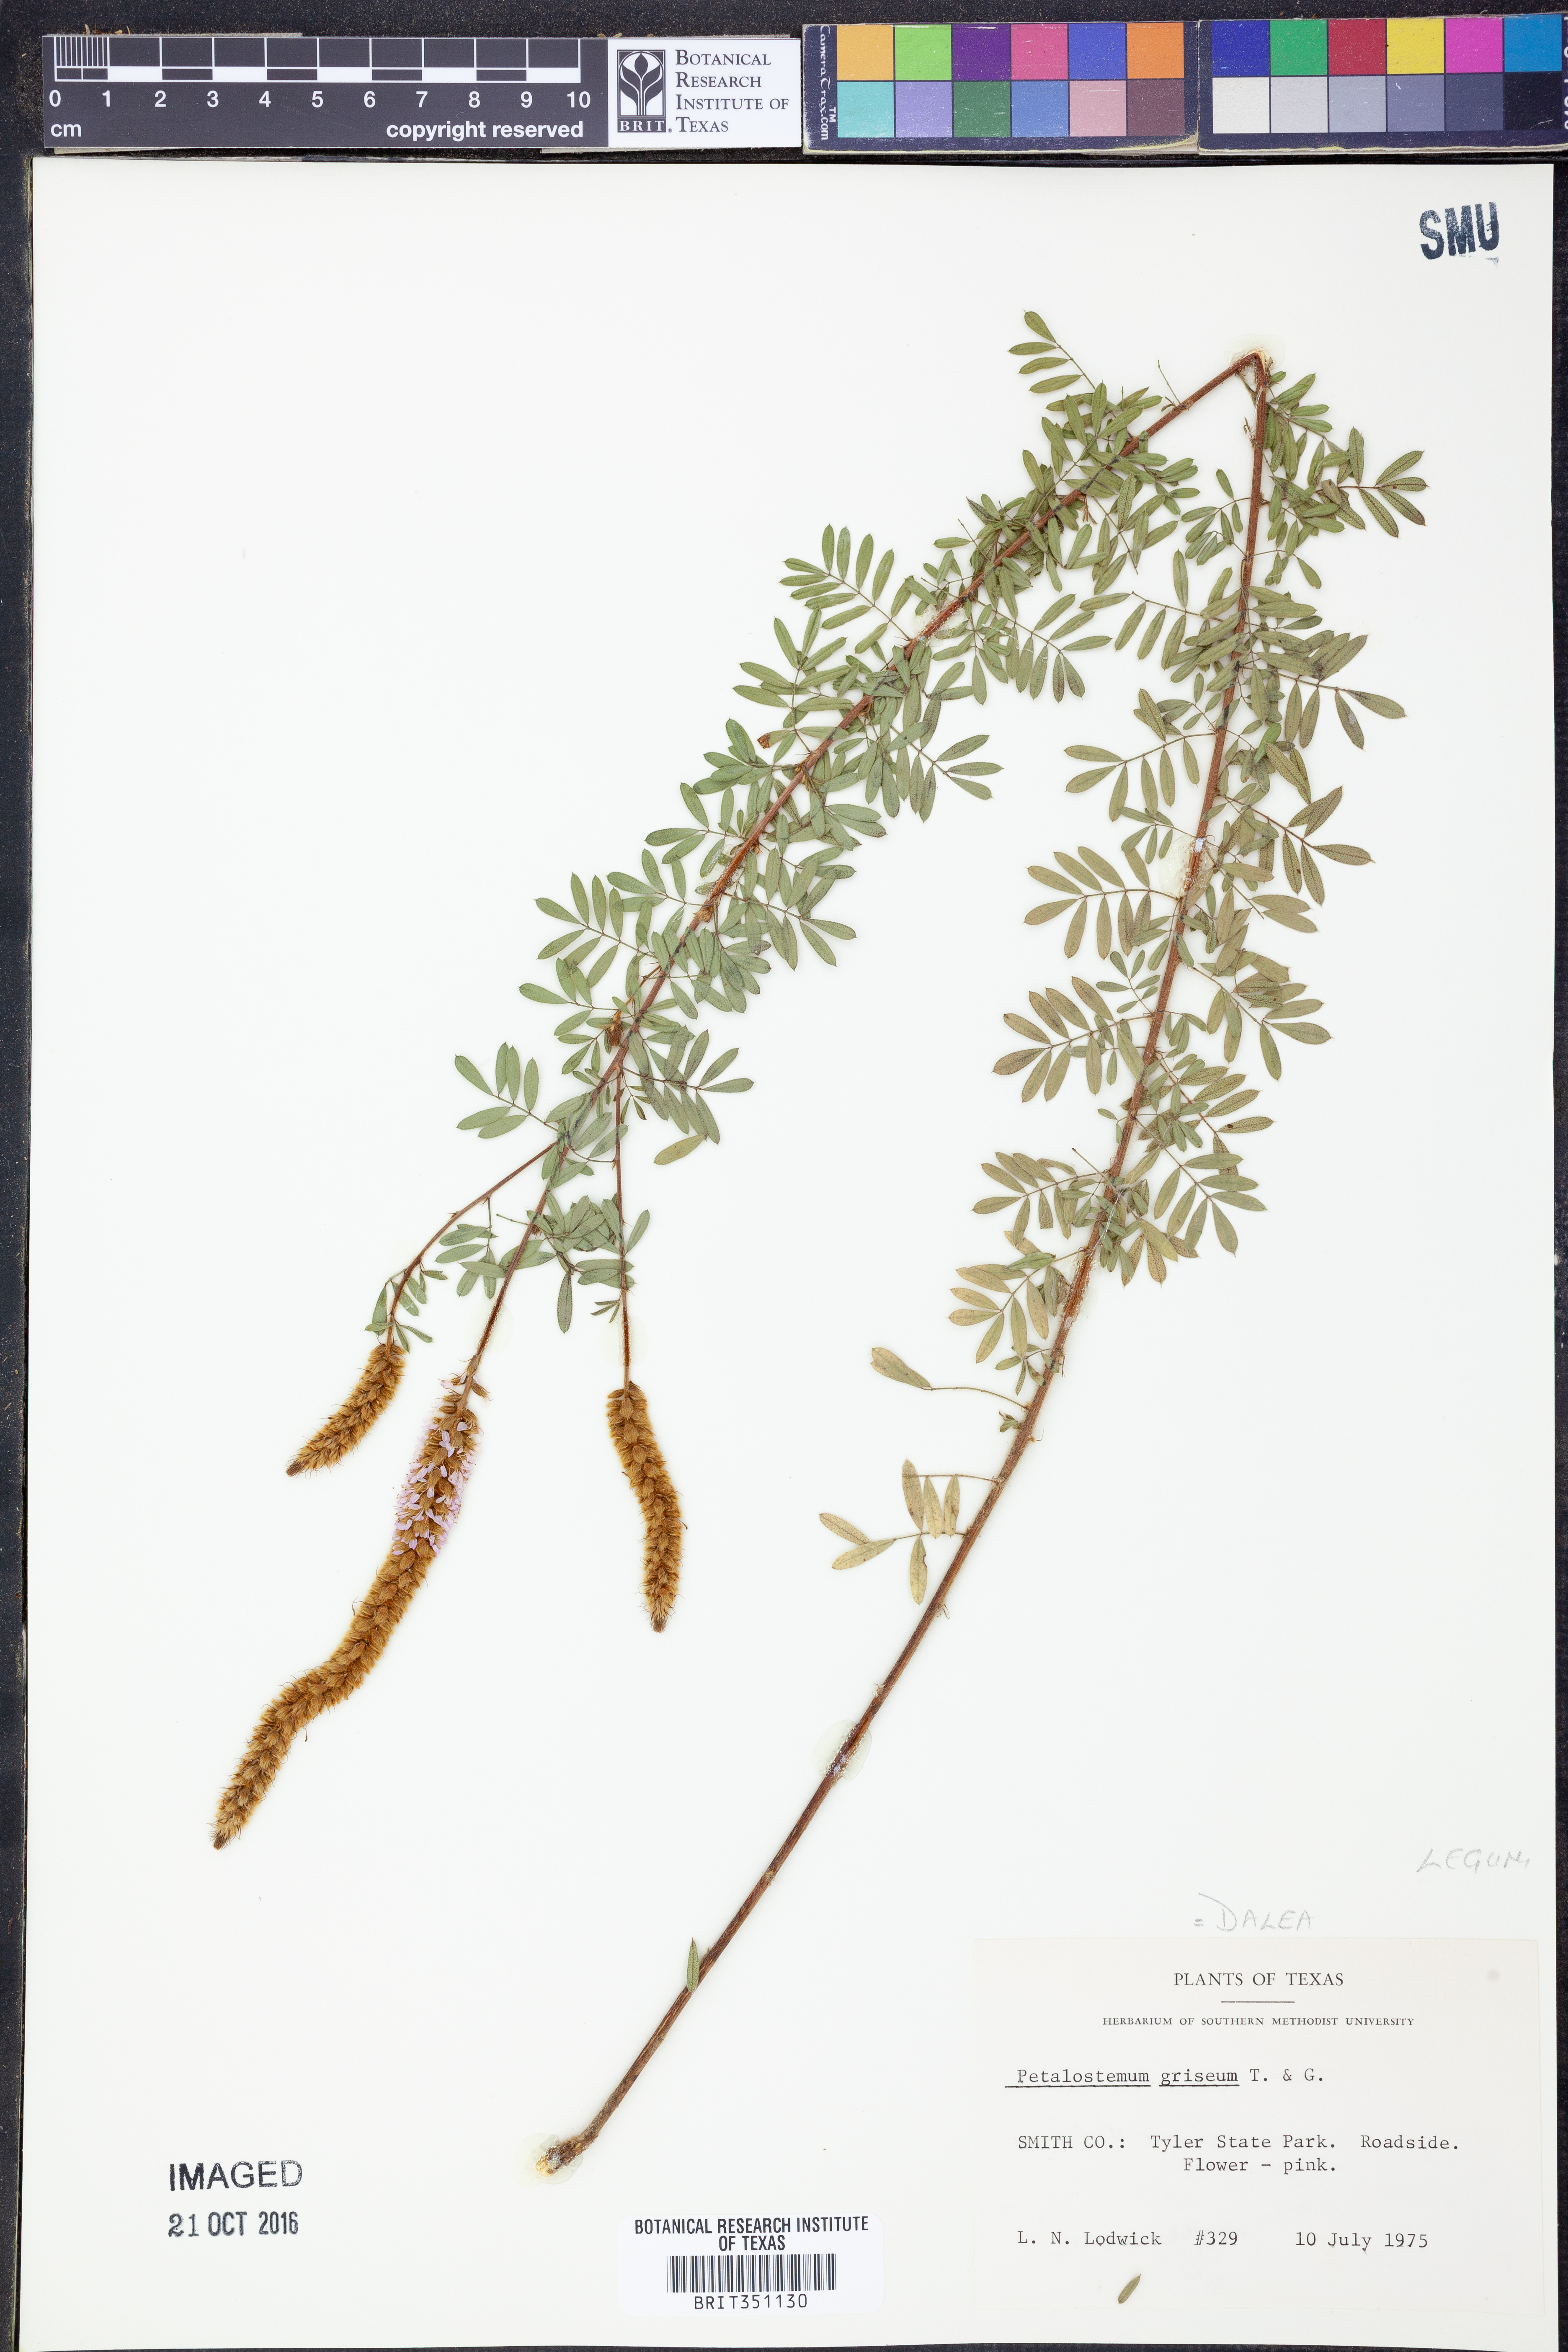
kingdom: Plantae
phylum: Tracheophyta
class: Magnoliopsida
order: Fabales
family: Fabaceae
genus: Dalea
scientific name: Dalea villosa
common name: Silky prairie-clover
